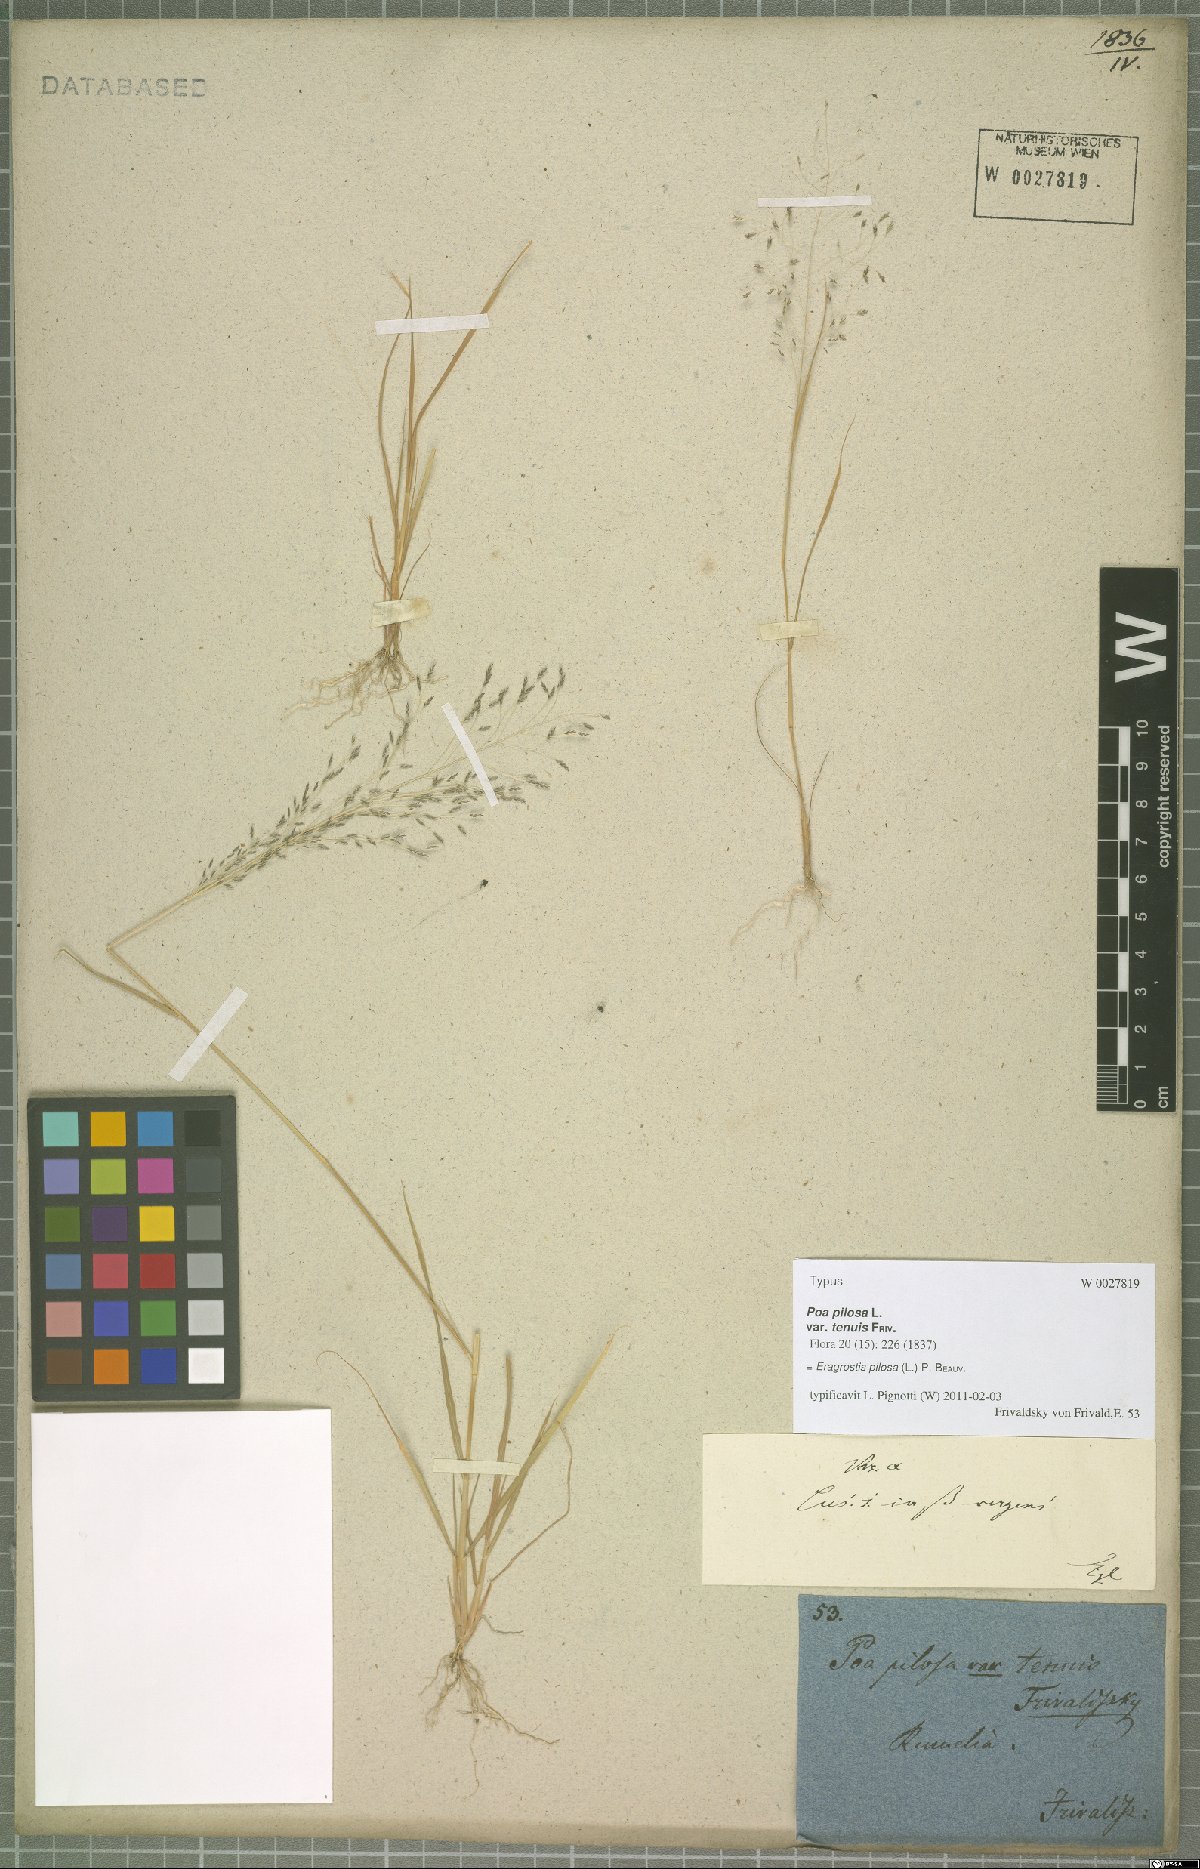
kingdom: Plantae
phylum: Tracheophyta
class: Liliopsida
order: Poales
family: Poaceae
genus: Eragrostis
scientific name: Eragrostis pilosa
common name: Indian lovegrass
